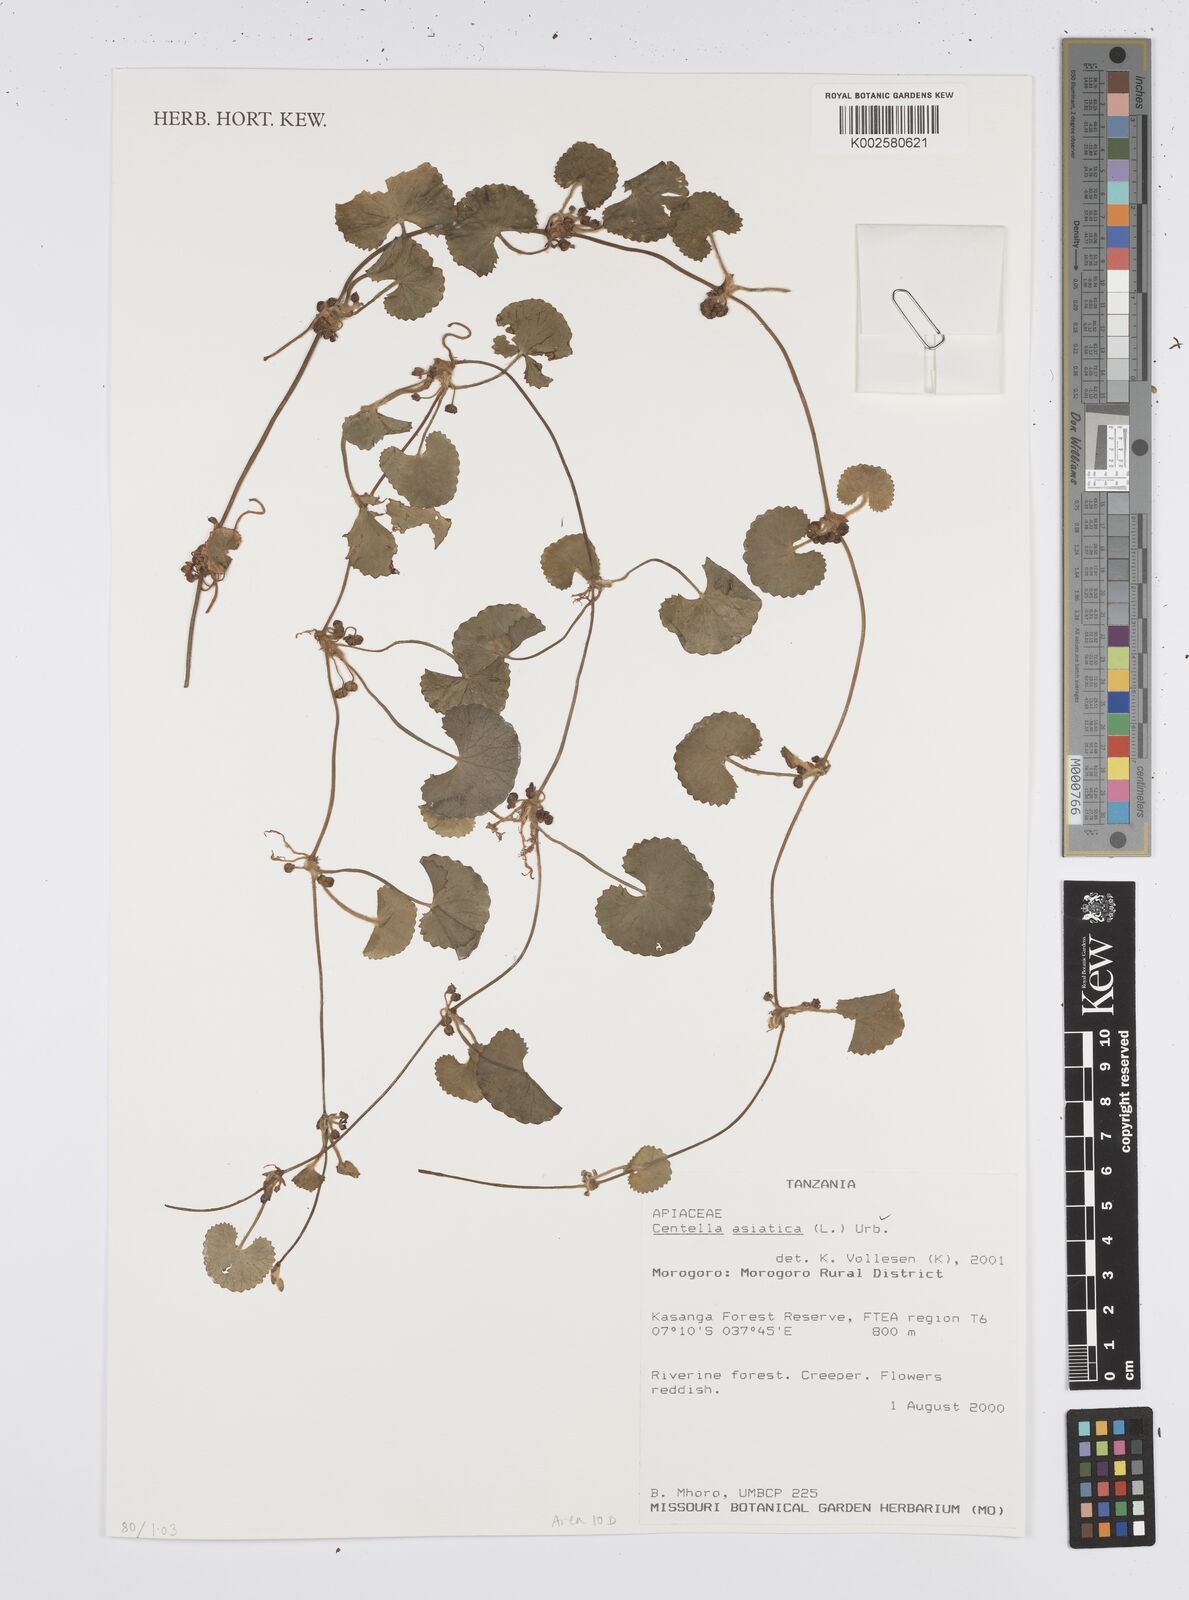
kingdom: Plantae
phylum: Tracheophyta
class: Magnoliopsida
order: Apiales
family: Apiaceae
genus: Centella
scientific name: Centella asiatica
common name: Spadeleaf
